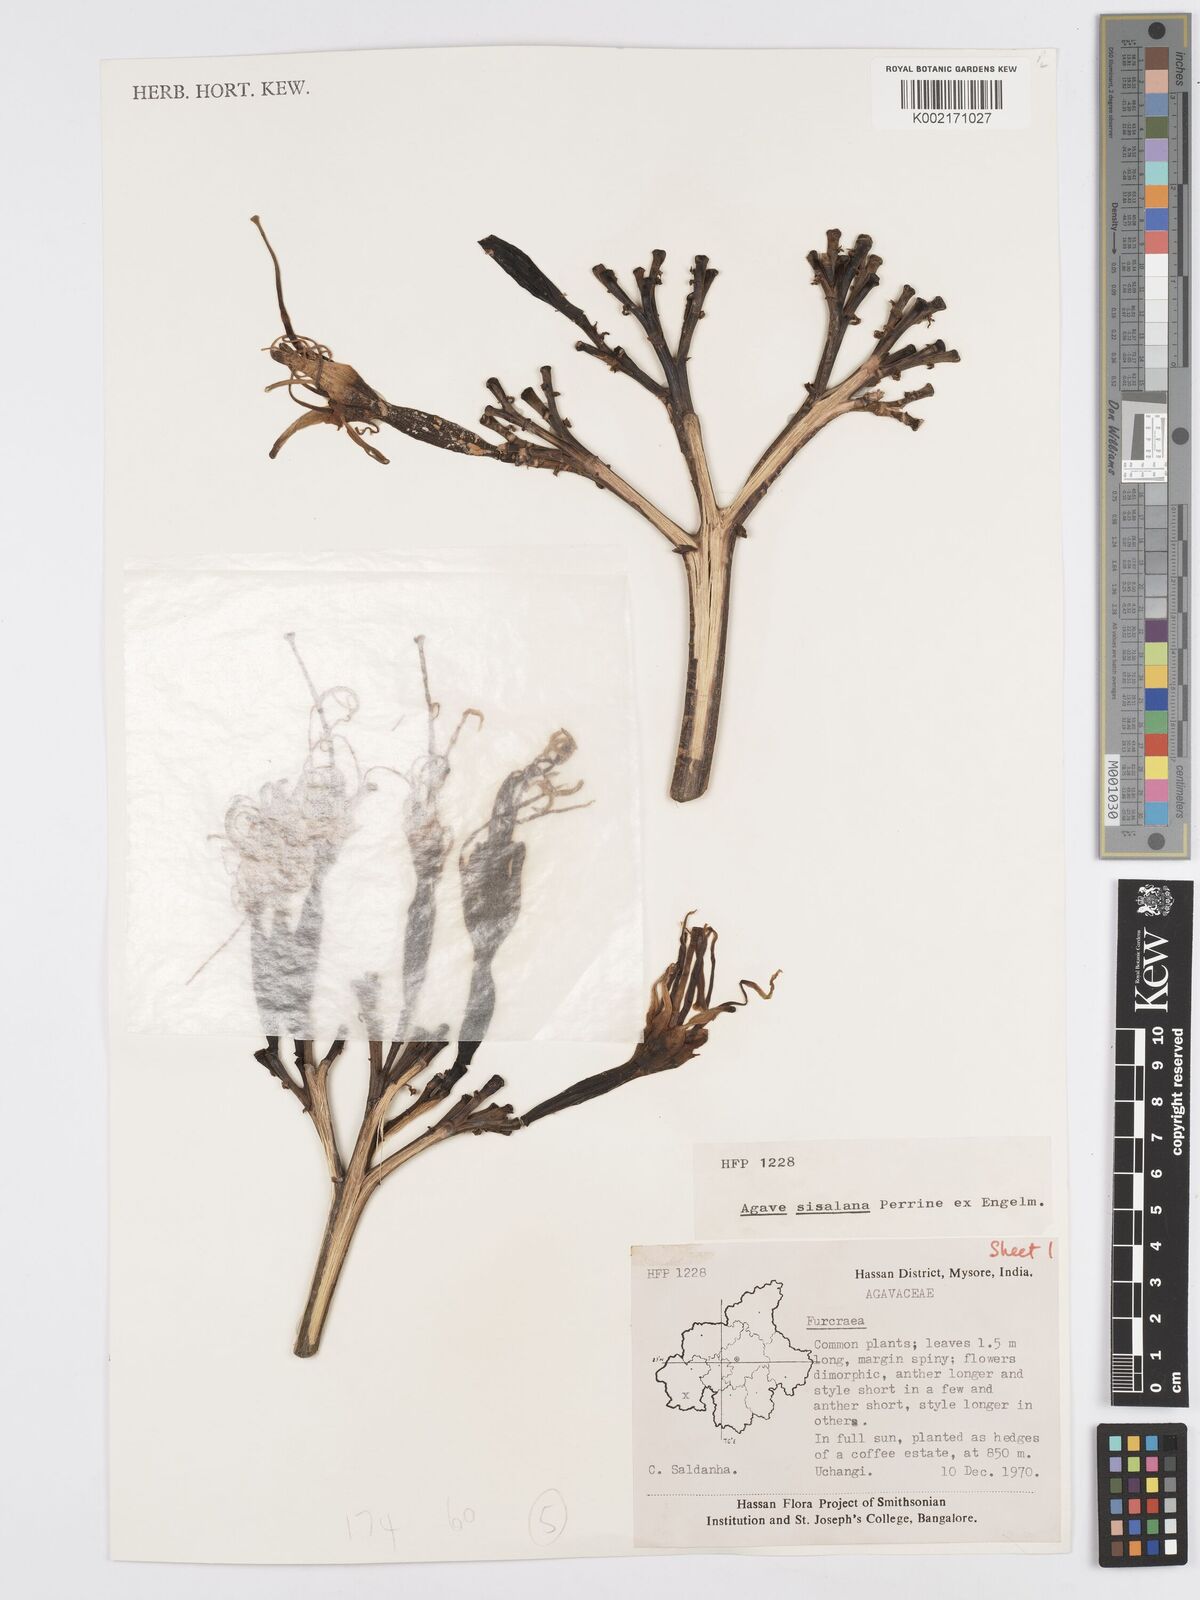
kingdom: Plantae
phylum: Tracheophyta
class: Liliopsida
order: Asparagales
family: Asparagaceae
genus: Agave
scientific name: Agave sisalana
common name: Sisal hemp
